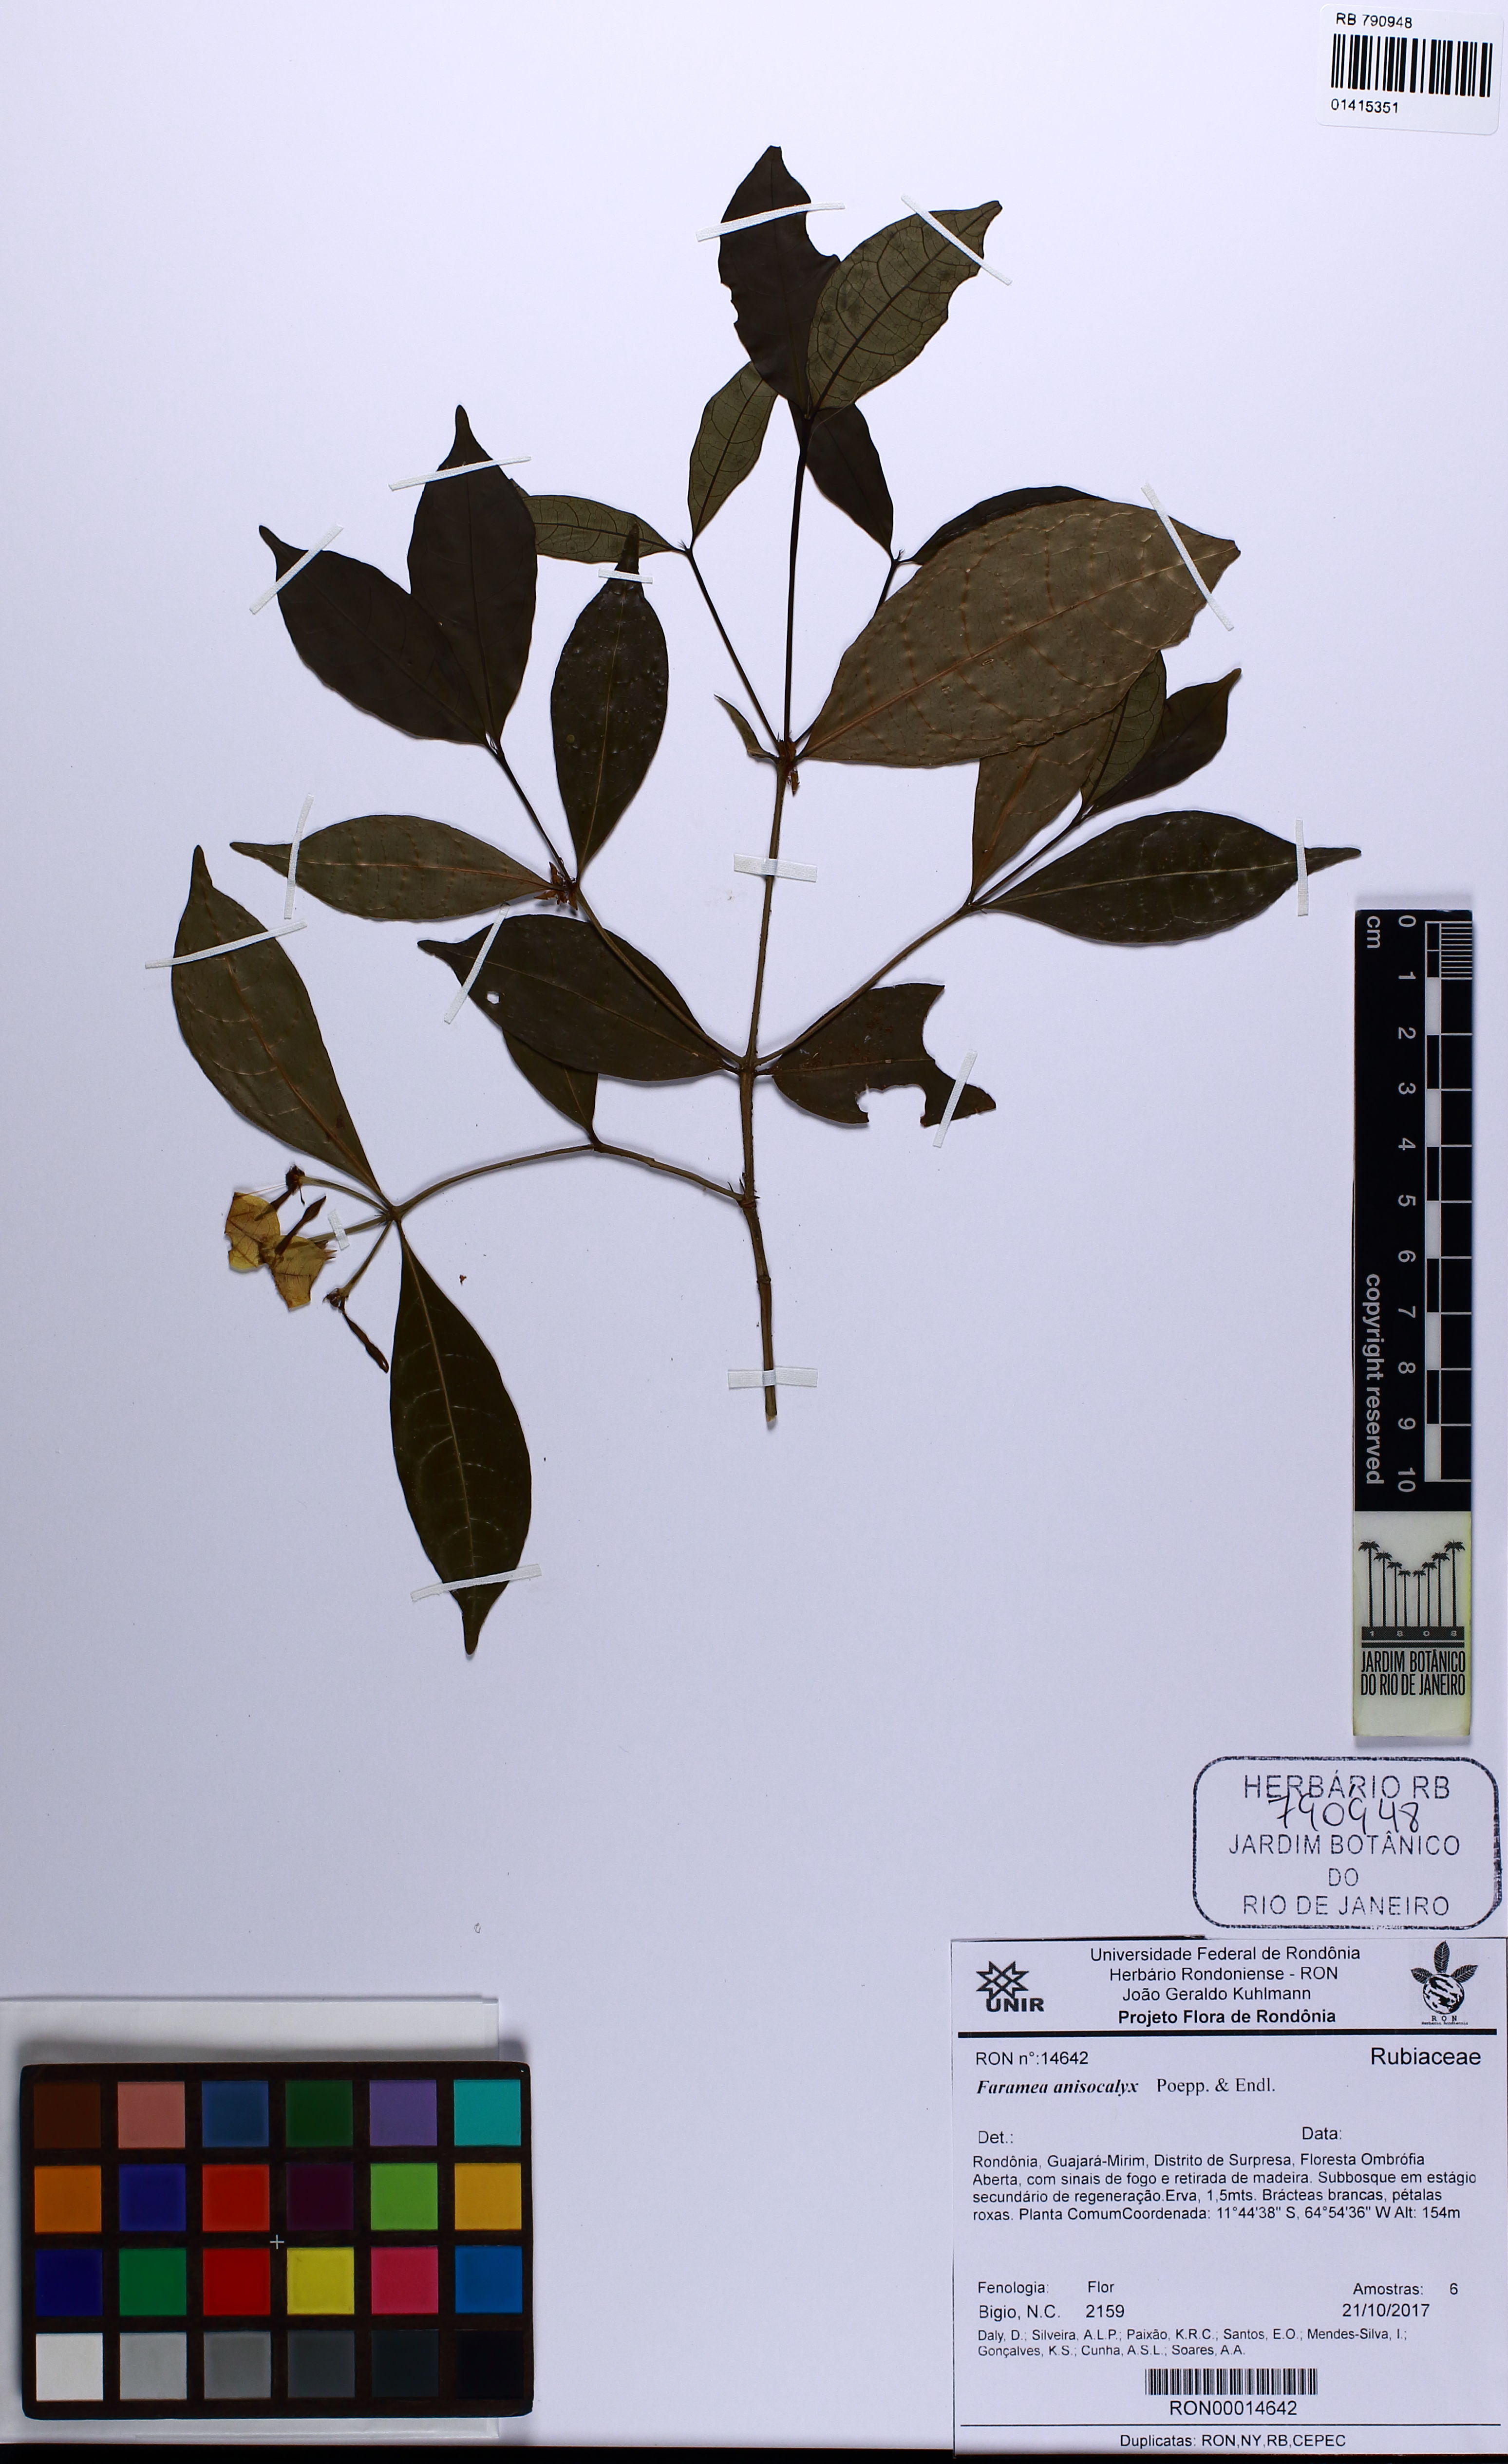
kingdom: Plantae
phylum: Tracheophyta
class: Magnoliopsida
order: Gentianales
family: Rubiaceae
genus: Faramea
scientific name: Faramea anisocalyx
